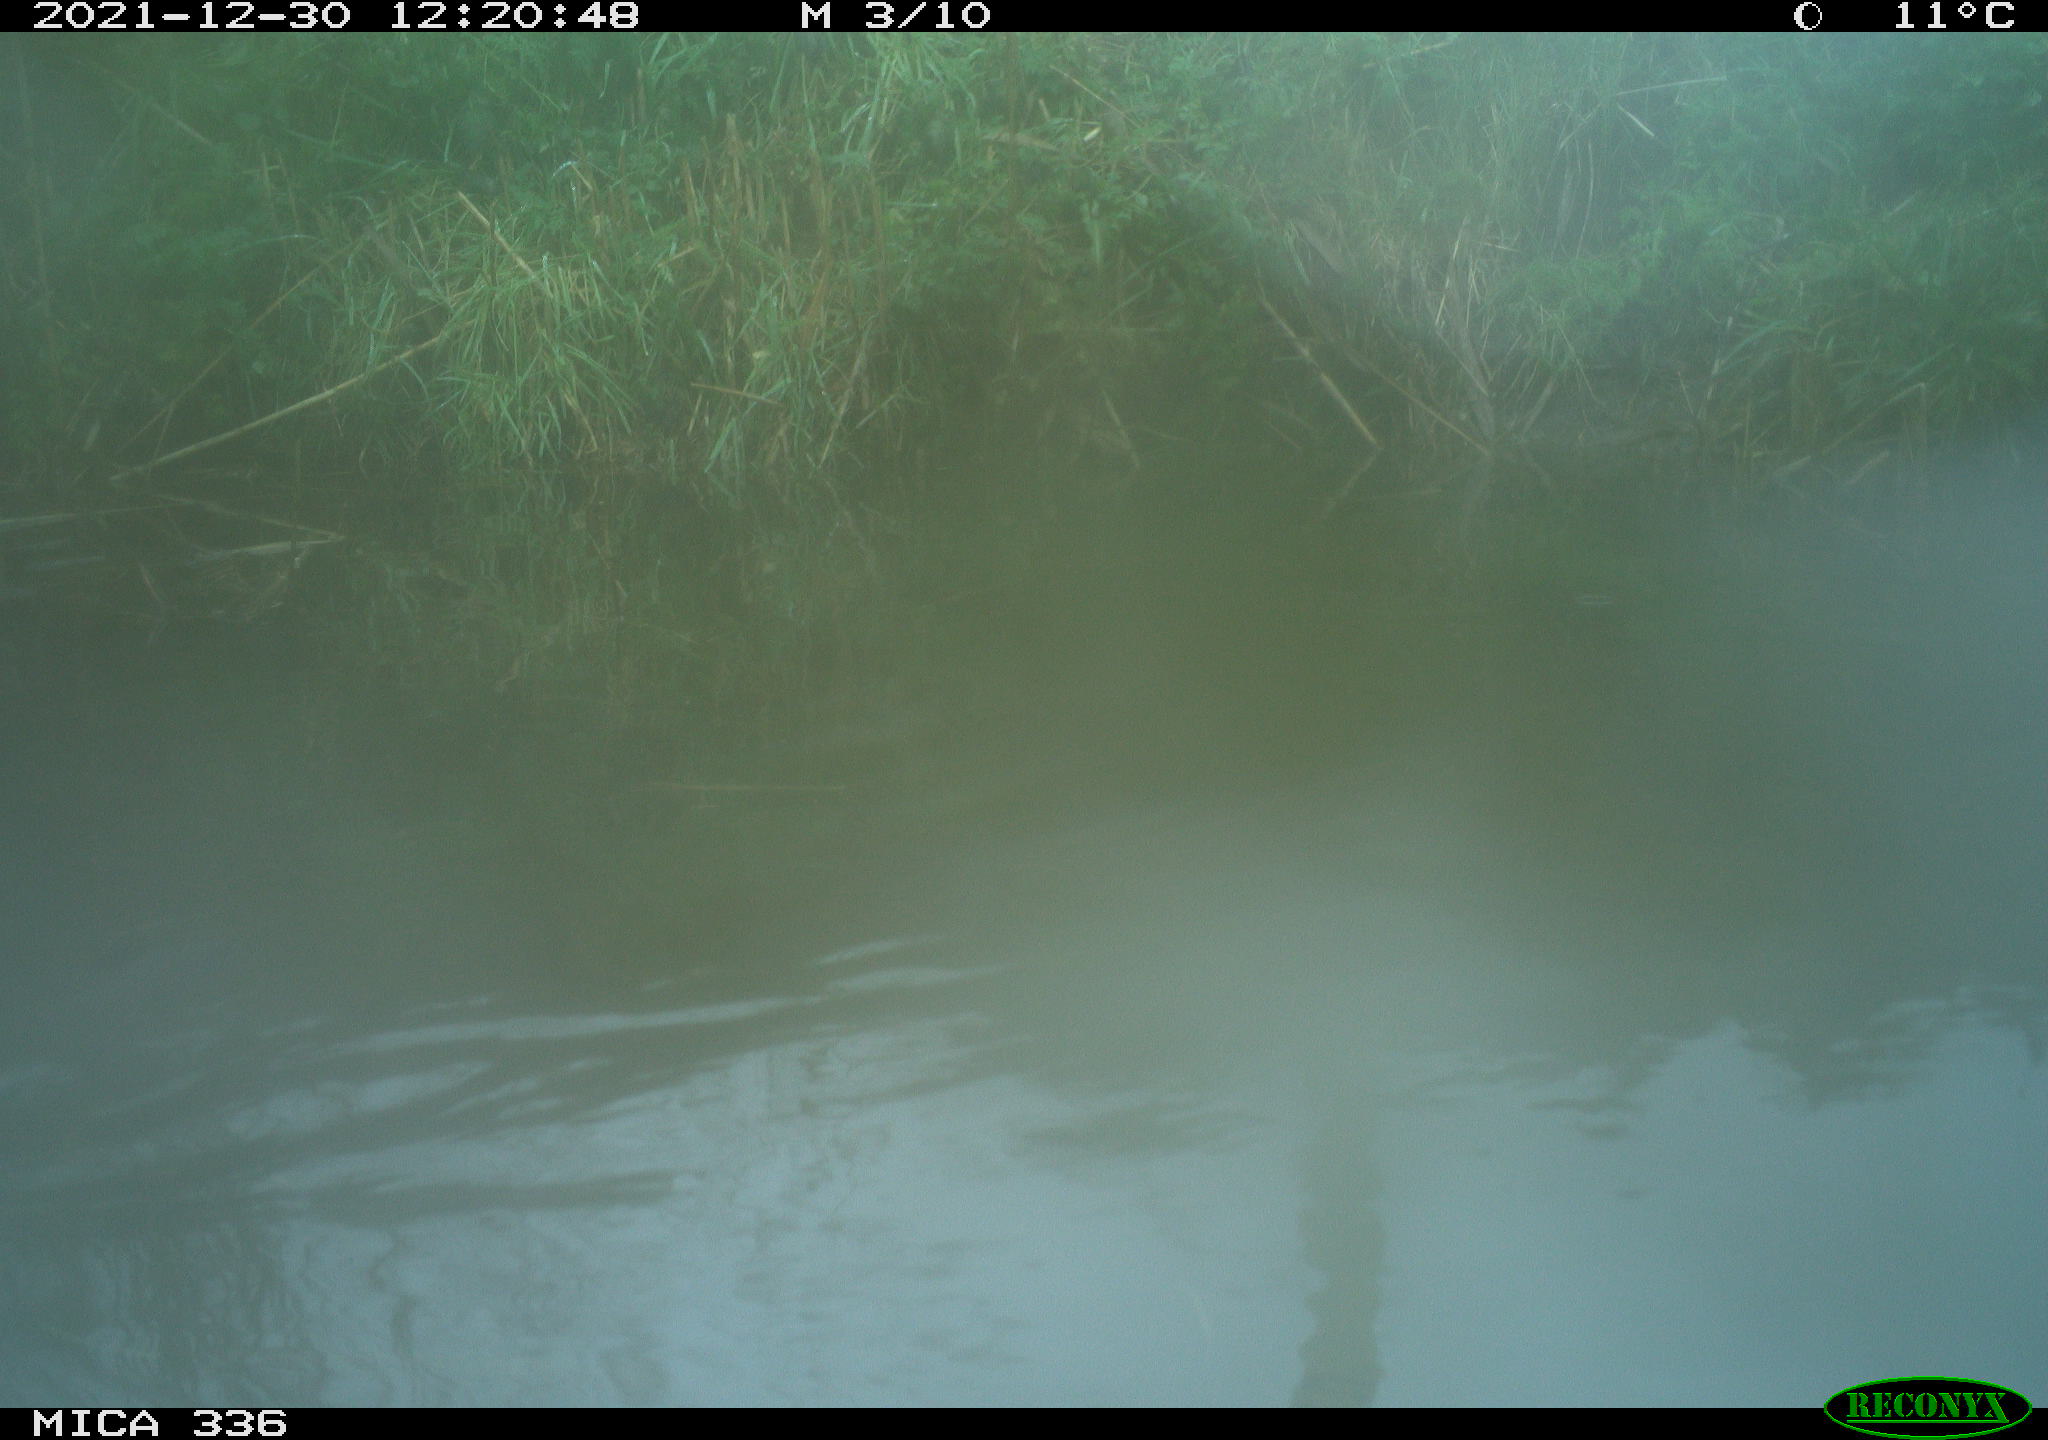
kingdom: Animalia
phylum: Chordata
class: Aves
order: Gruiformes
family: Rallidae
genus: Gallinula
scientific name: Gallinula chloropus
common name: Common moorhen
